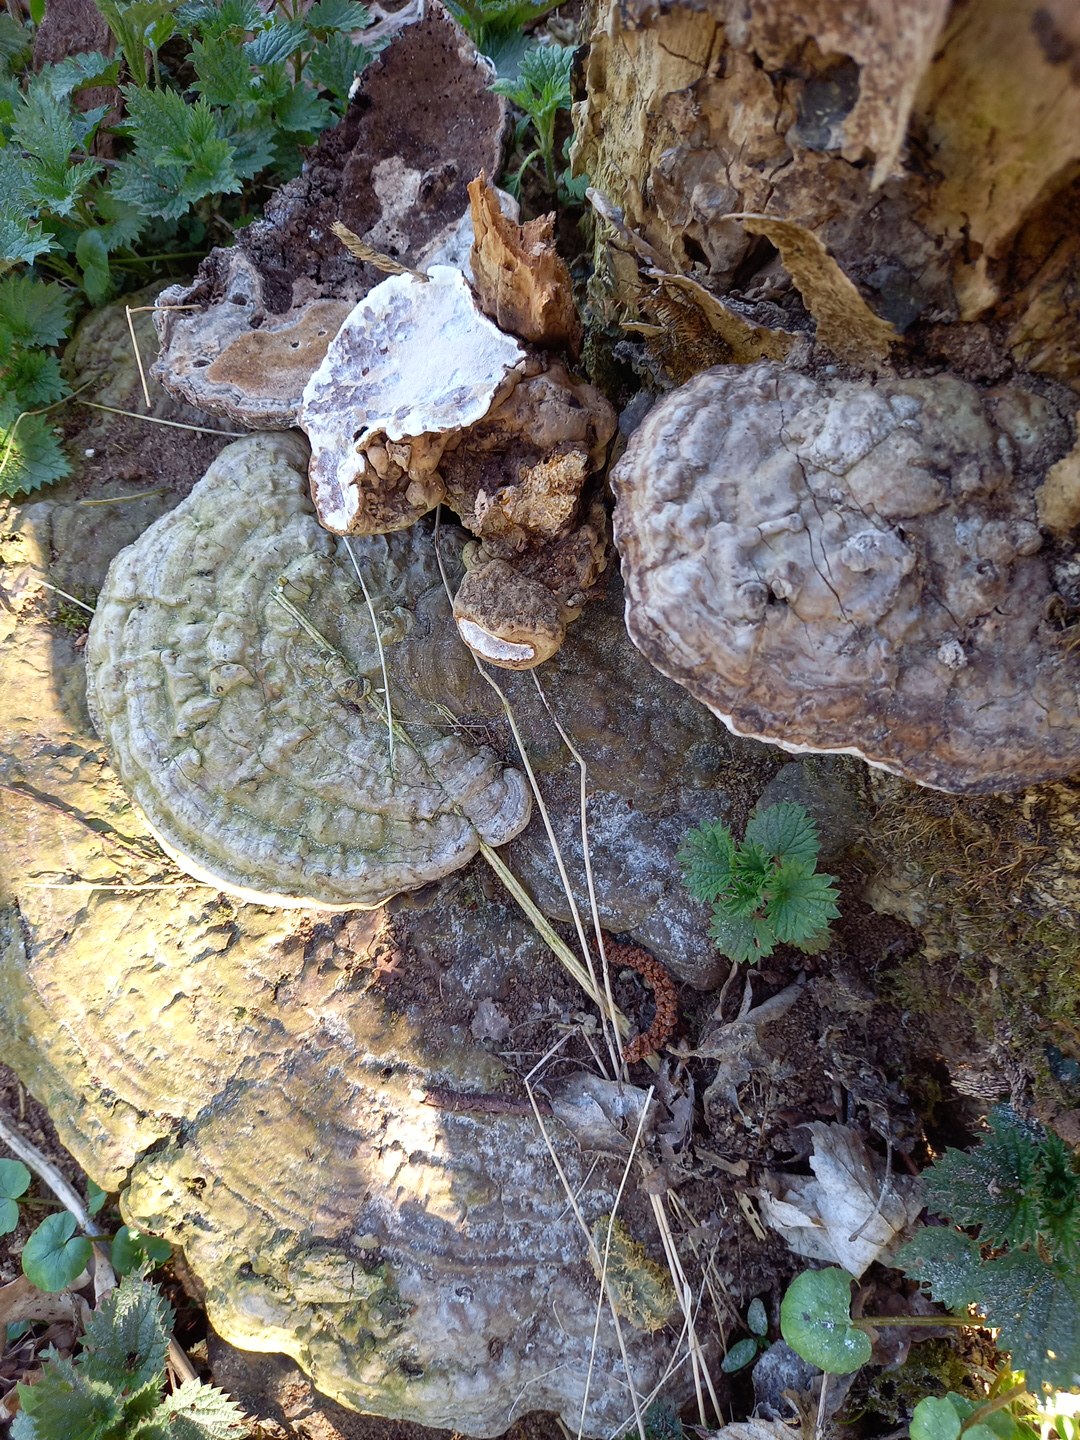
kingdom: Fungi
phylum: Basidiomycota
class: Agaricomycetes
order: Polyporales
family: Polyporaceae
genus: Ganoderma
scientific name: Ganoderma applanatum
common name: flad lakporesvamp
